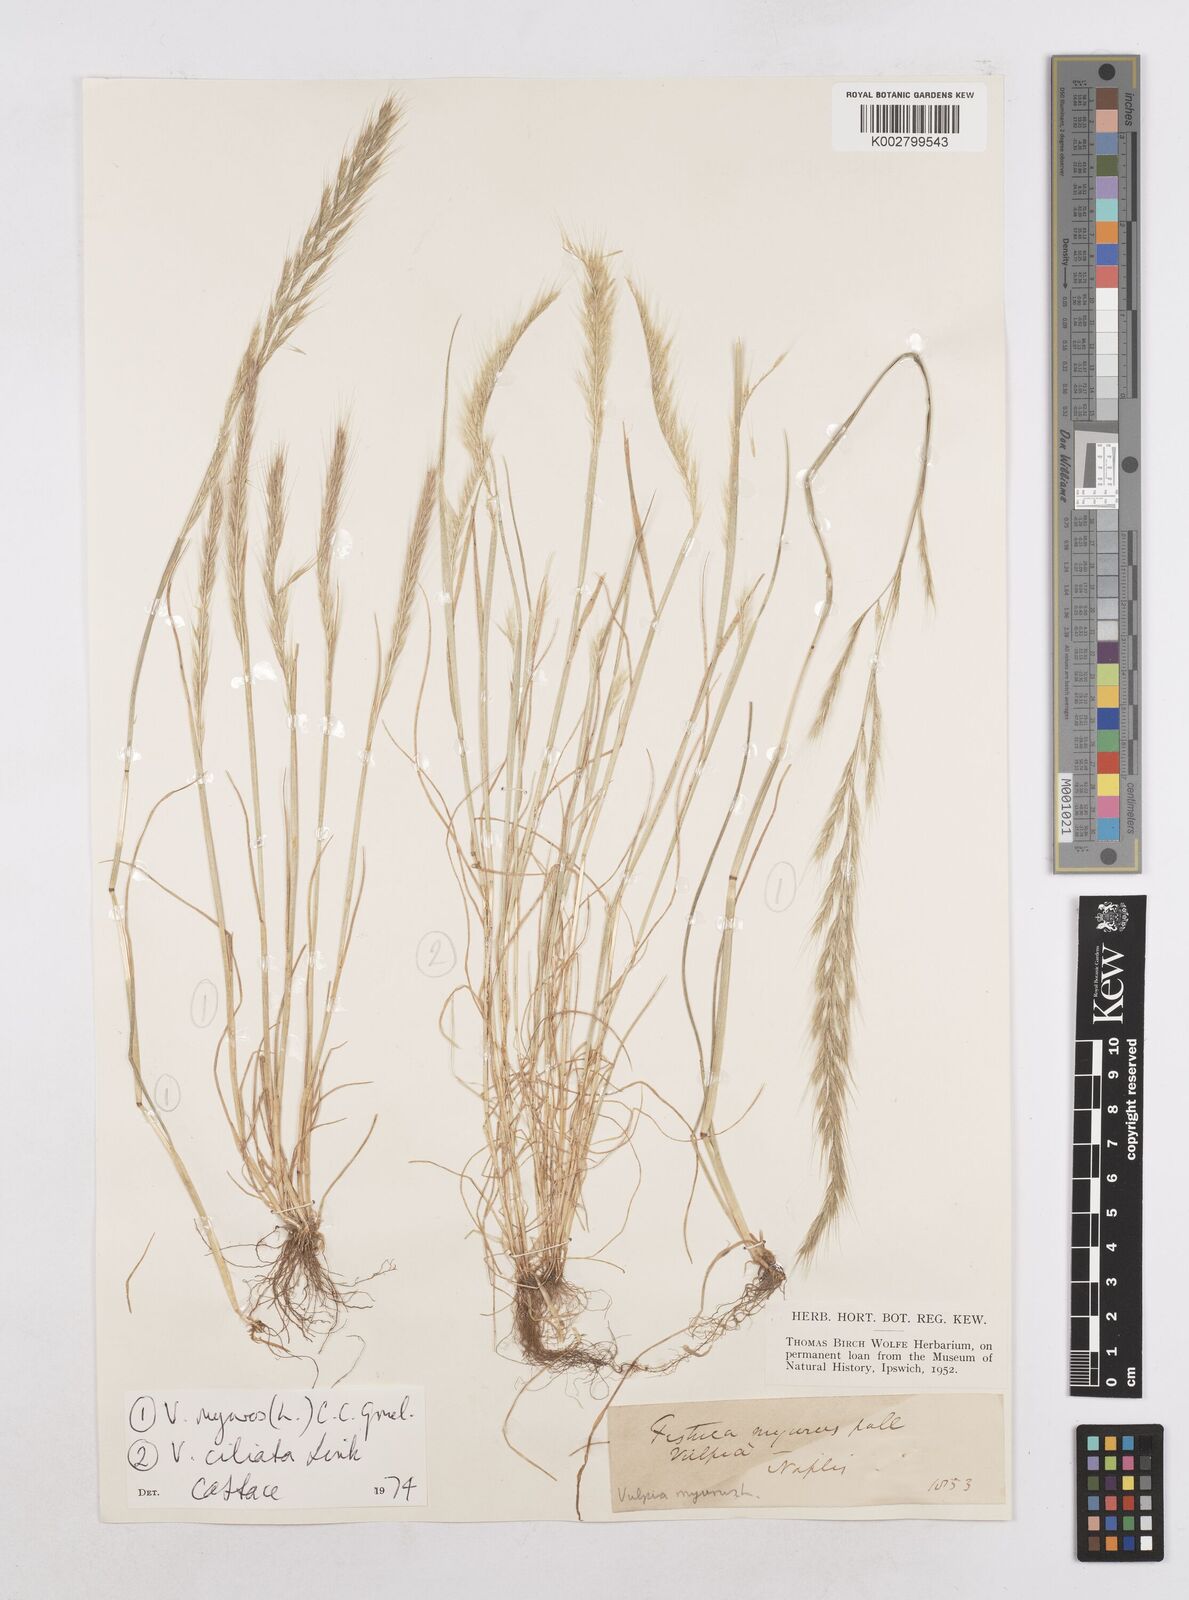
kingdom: Plantae
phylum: Tracheophyta
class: Liliopsida
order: Poales
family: Poaceae
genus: Festuca
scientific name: Festuca myuros
